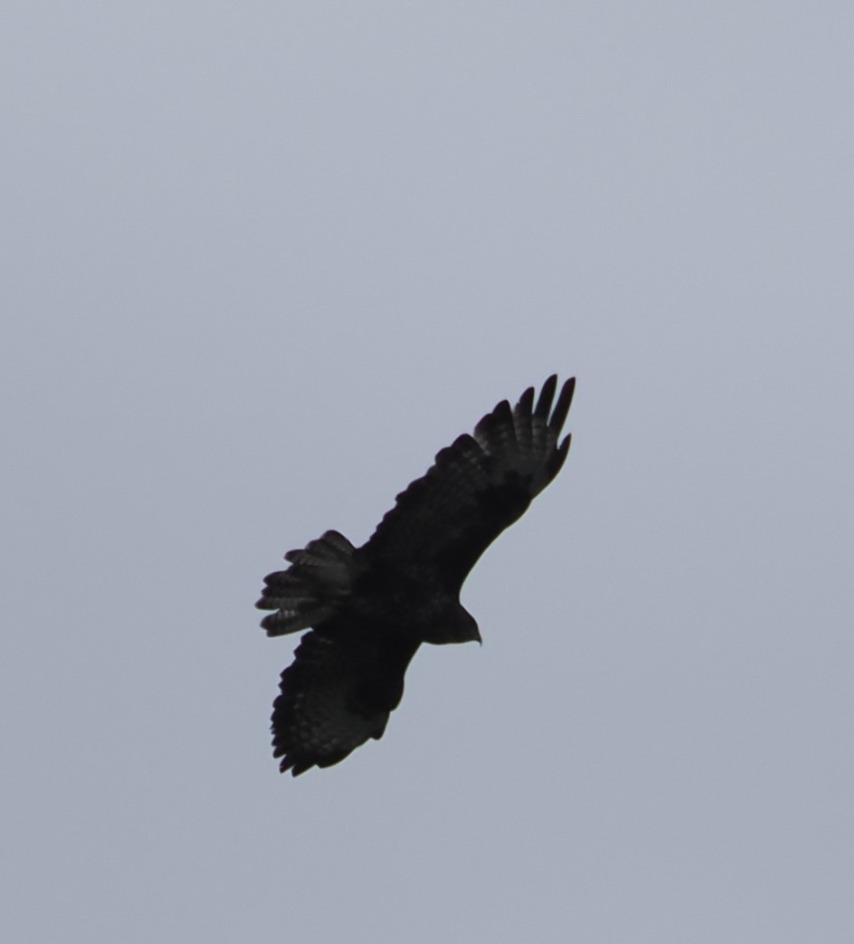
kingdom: Animalia
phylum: Chordata
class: Aves
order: Accipitriformes
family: Accipitridae
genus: Buteo
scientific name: Buteo buteo
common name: Musvåge
